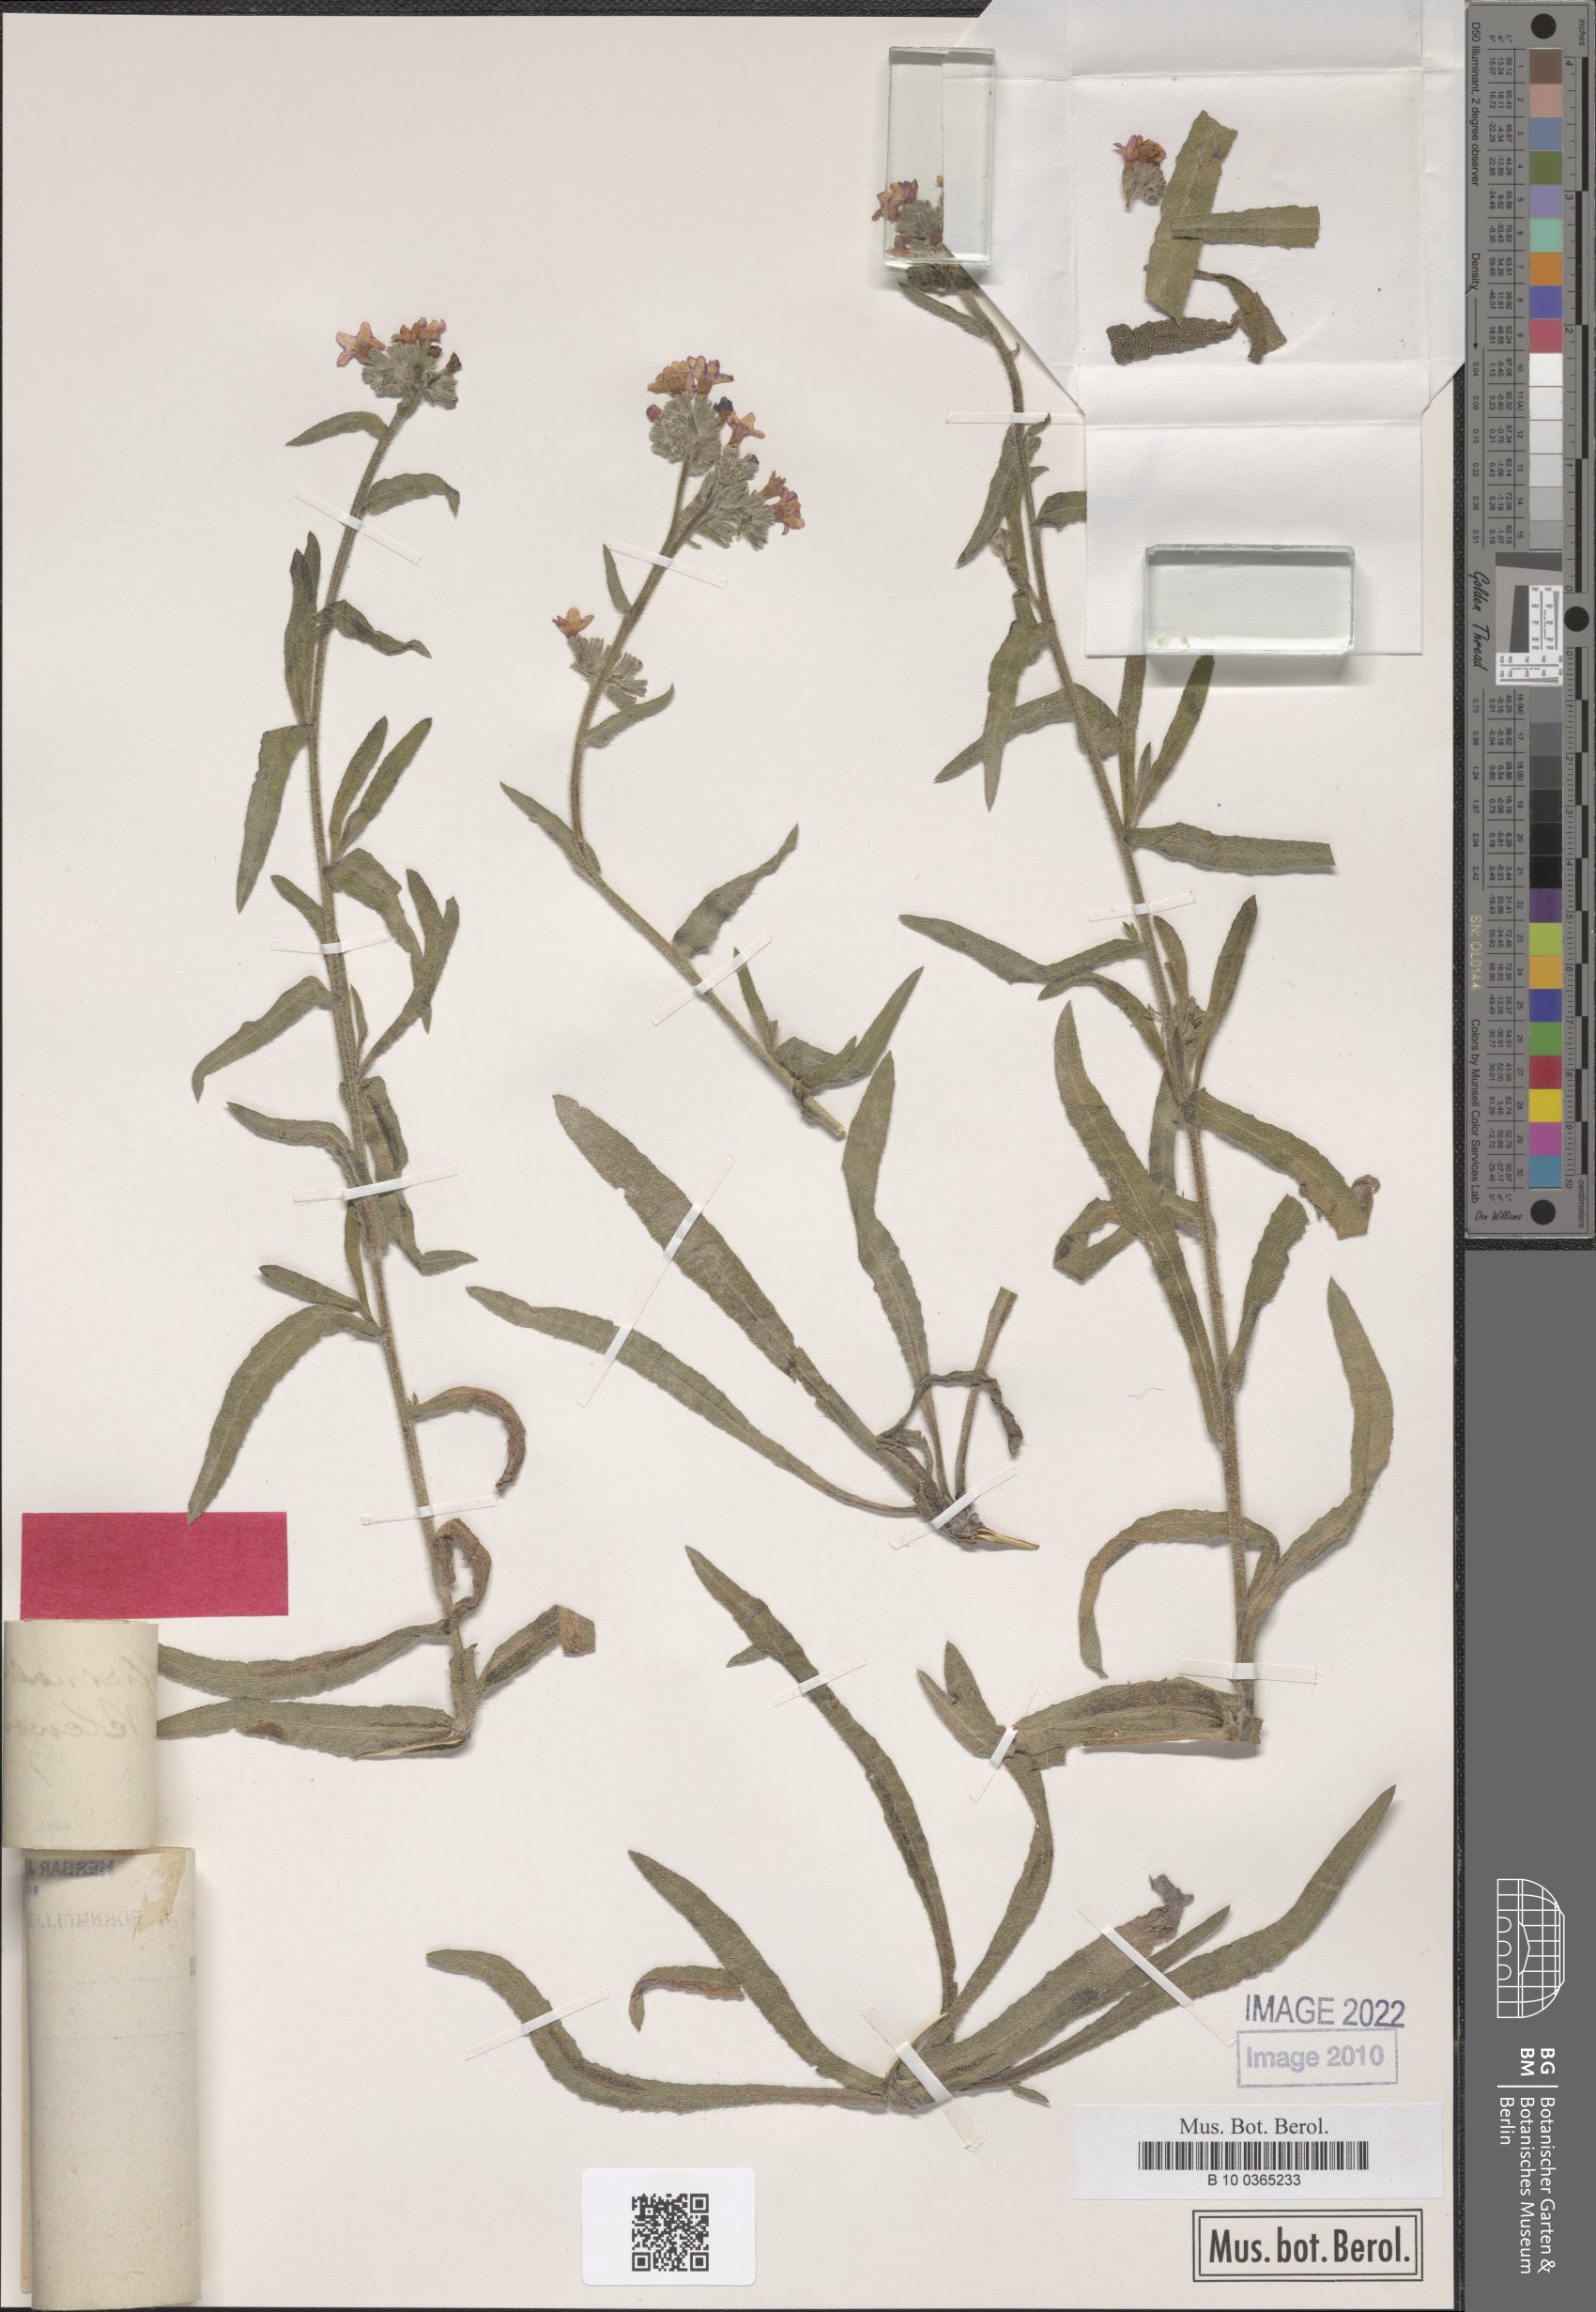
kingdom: Plantae
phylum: Tracheophyta
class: Magnoliopsida
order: Boraginales
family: Boraginaceae
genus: Anchusa
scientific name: Anchusa officinalis
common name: Alkanet
